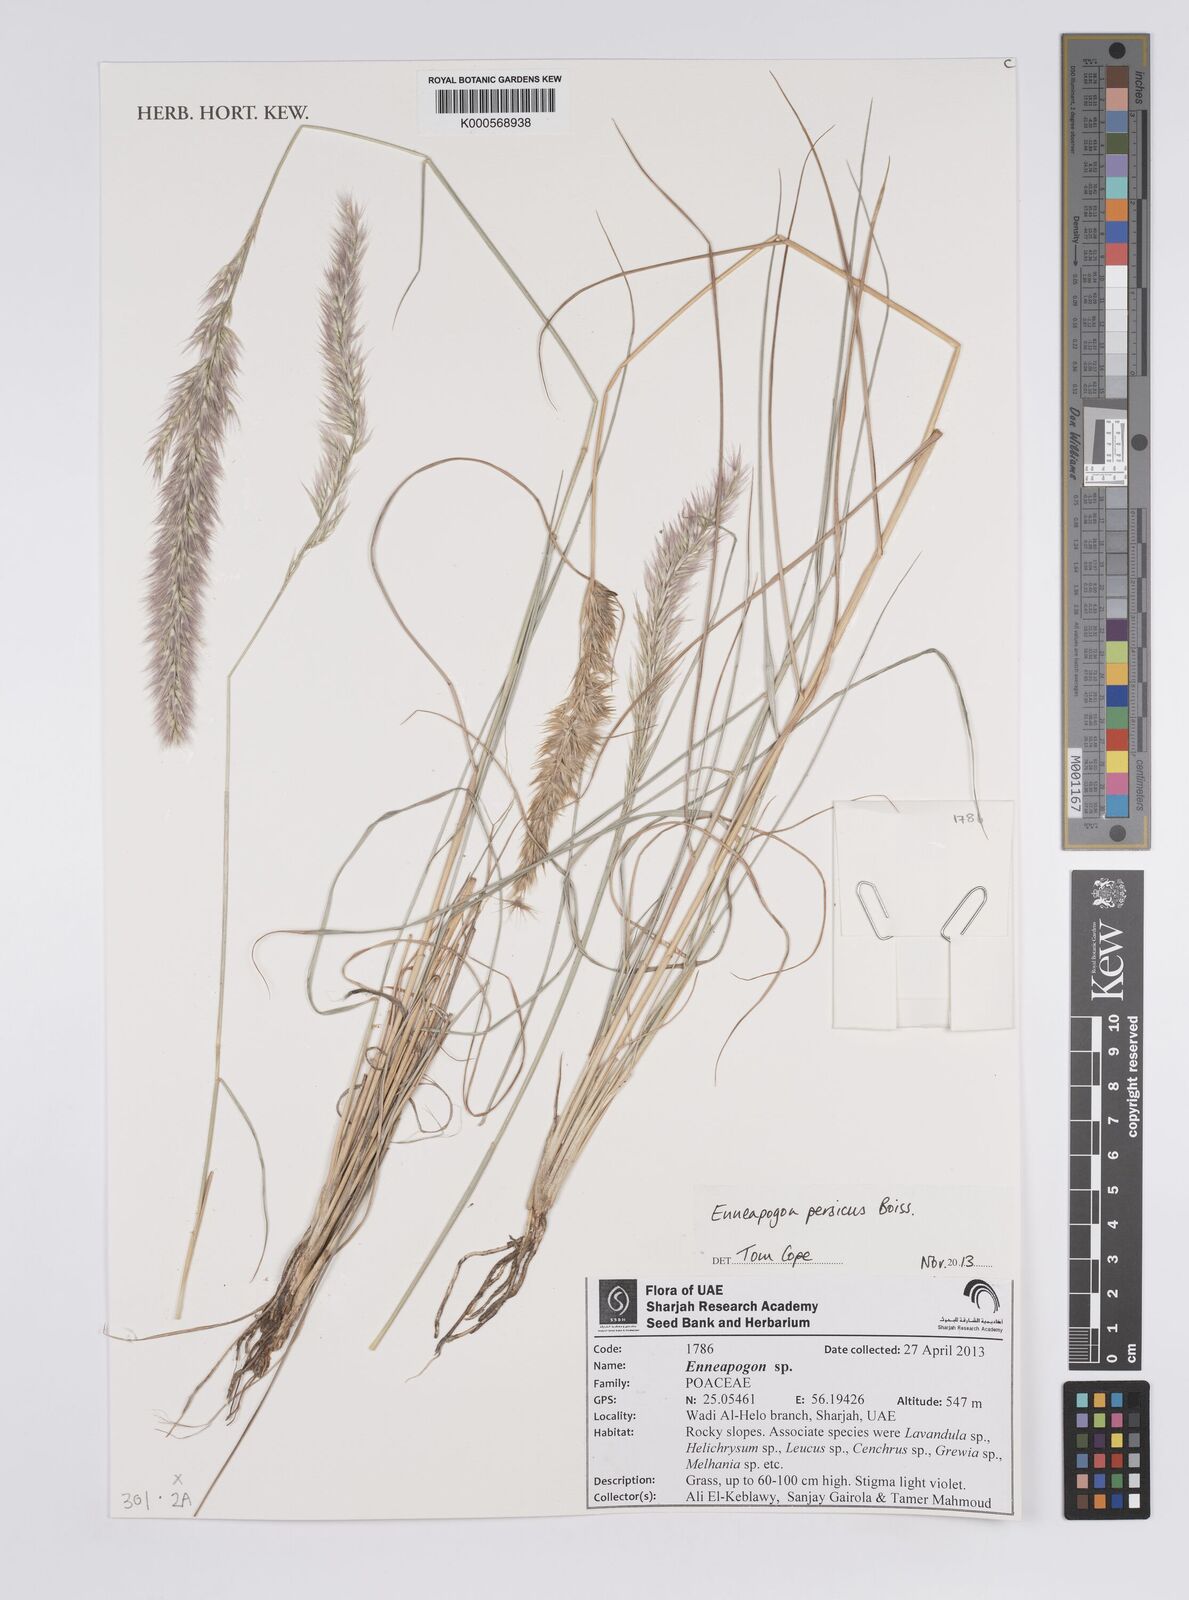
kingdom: Plantae
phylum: Tracheophyta
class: Liliopsida
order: Poales
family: Poaceae
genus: Enneapogon
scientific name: Enneapogon persicus
